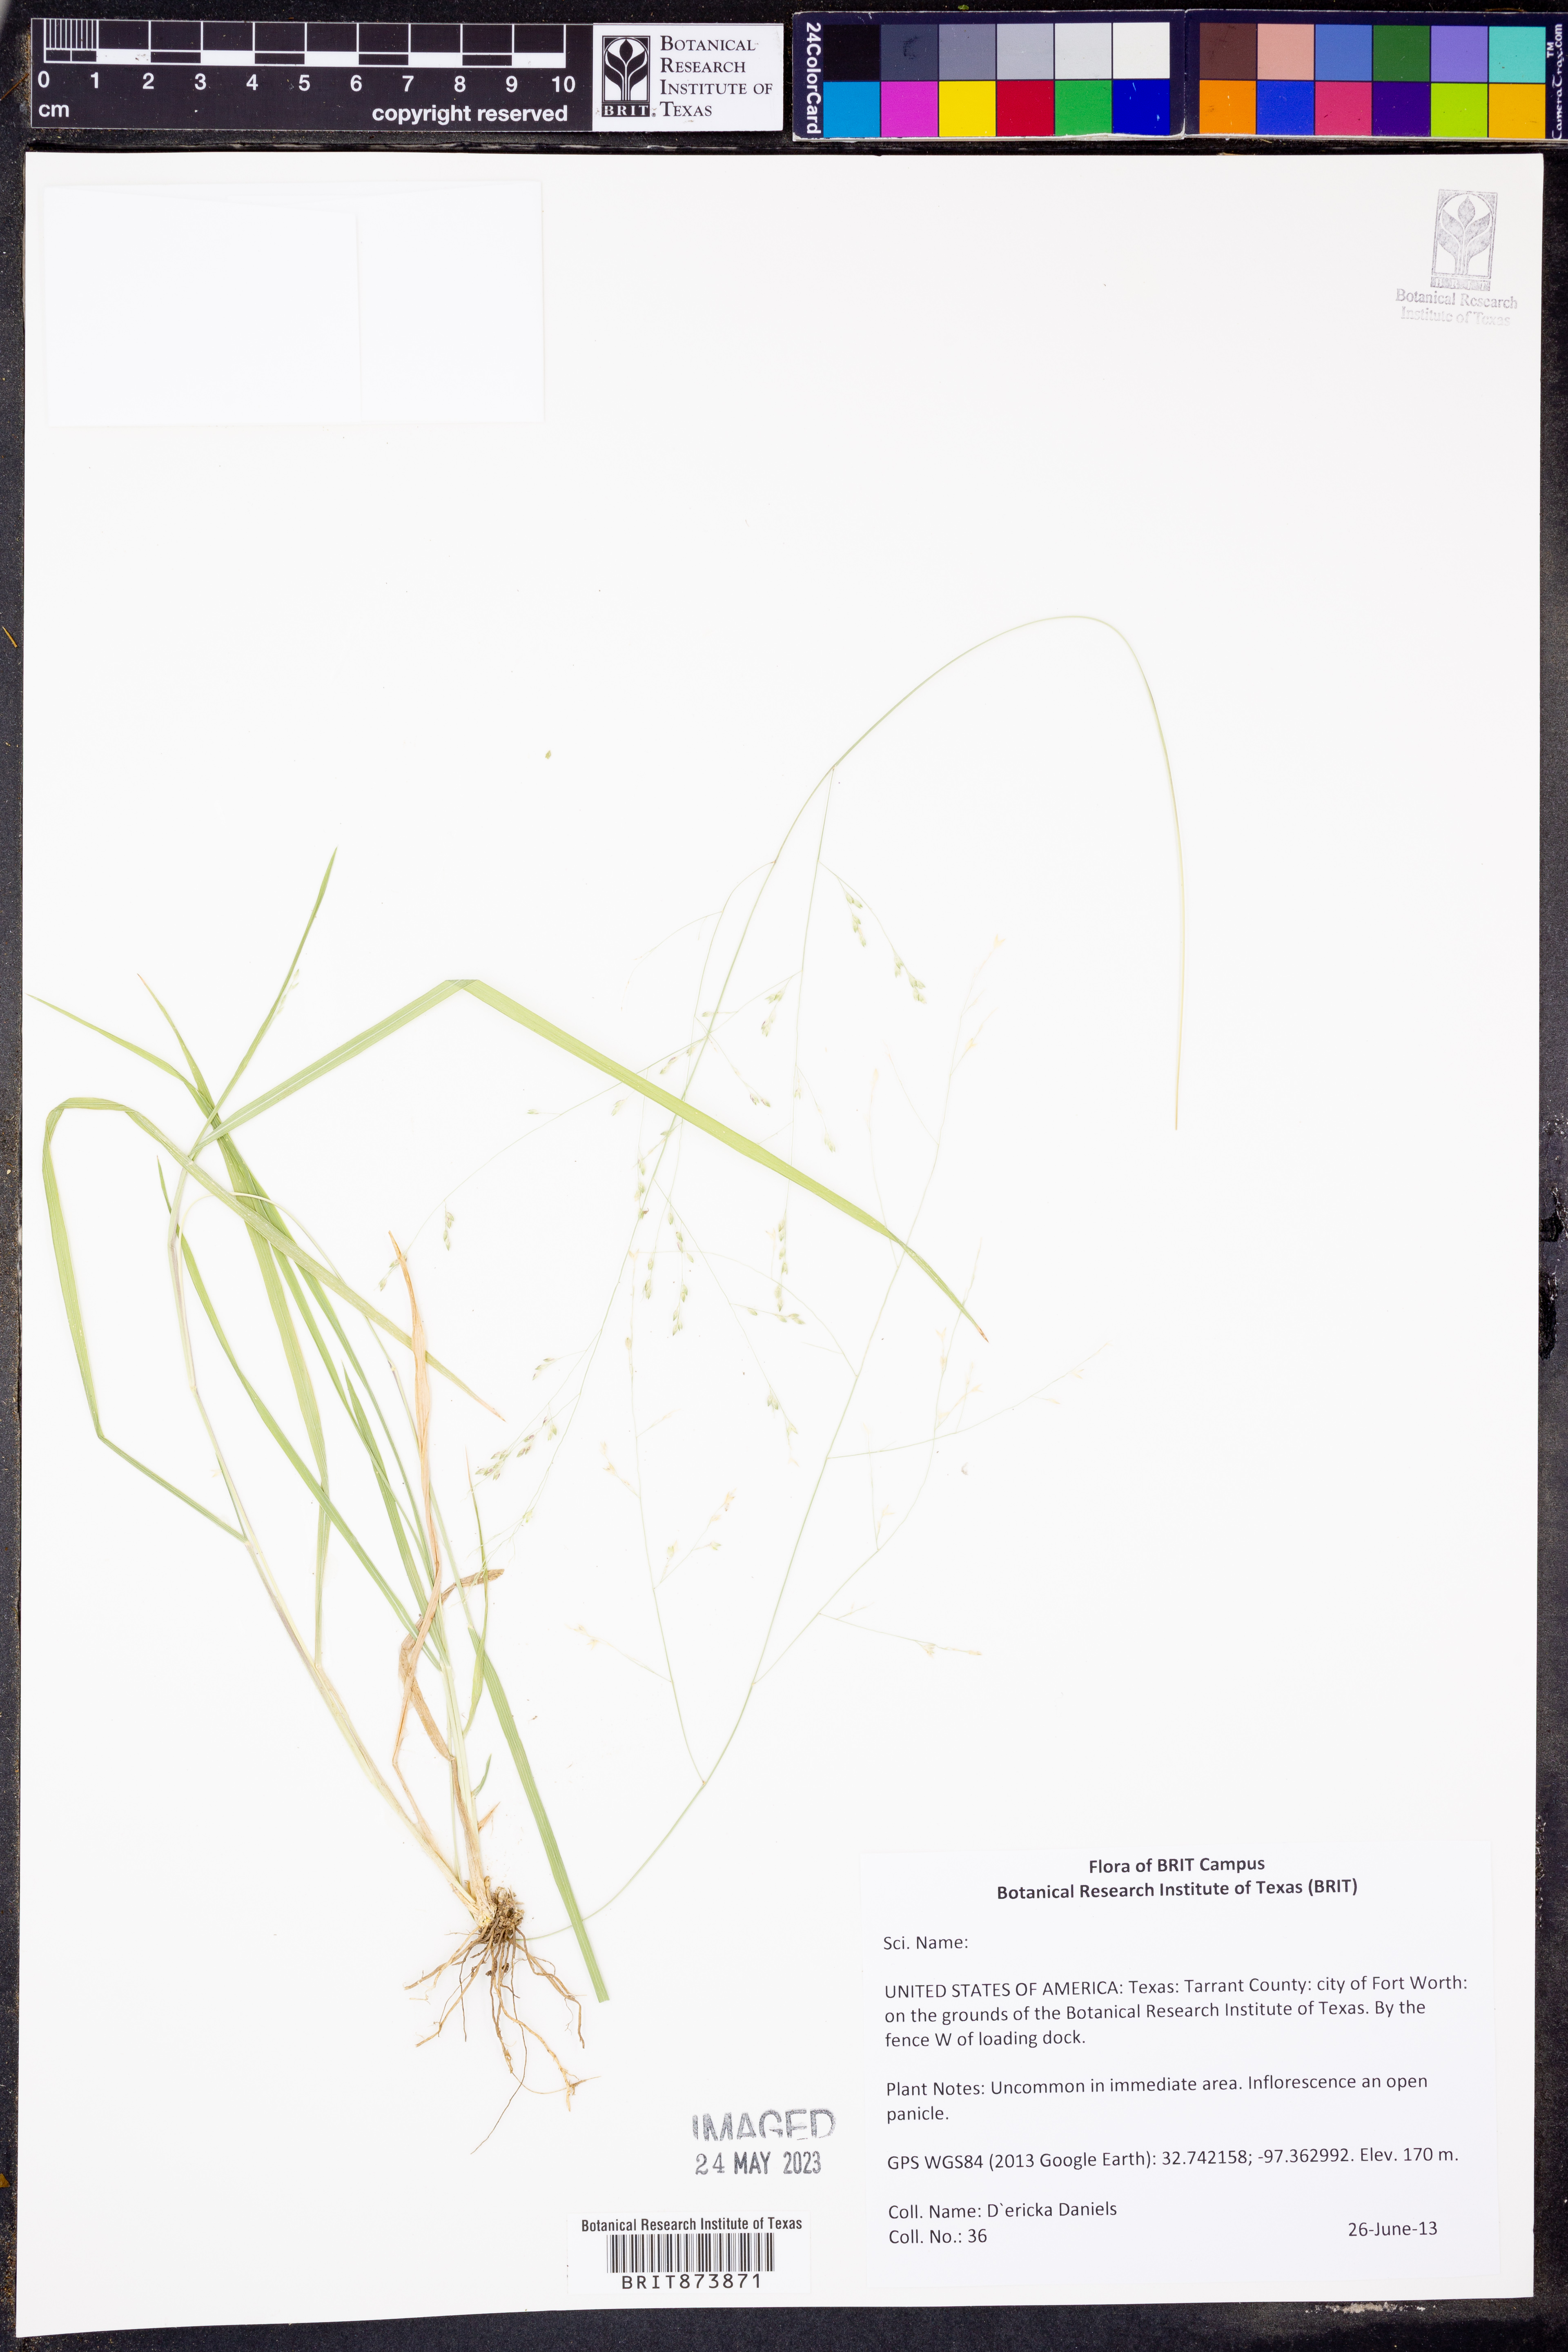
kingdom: Plantae
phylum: Tracheophyta
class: Liliopsida
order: Poales
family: Poaceae
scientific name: Poaceae
